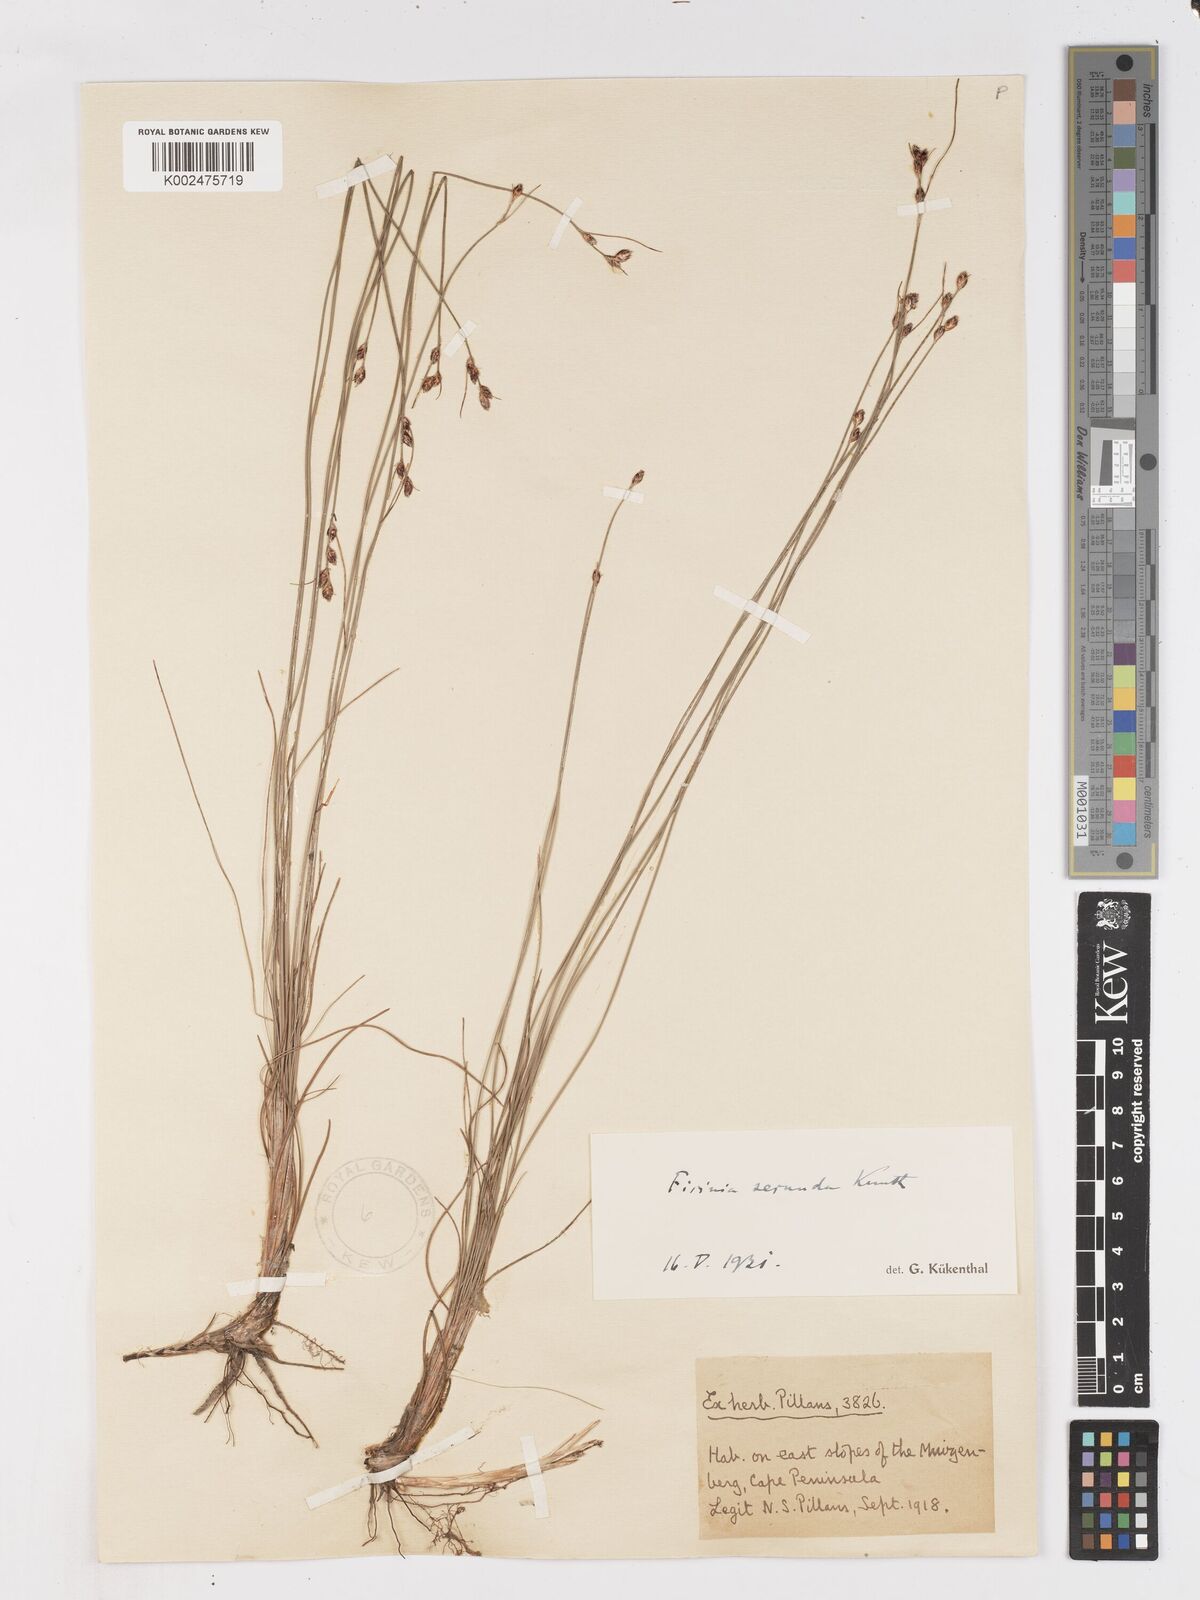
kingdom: Plantae
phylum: Tracheophyta
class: Liliopsida
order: Poales
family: Cyperaceae
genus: Ficinia
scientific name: Ficinia secunda
